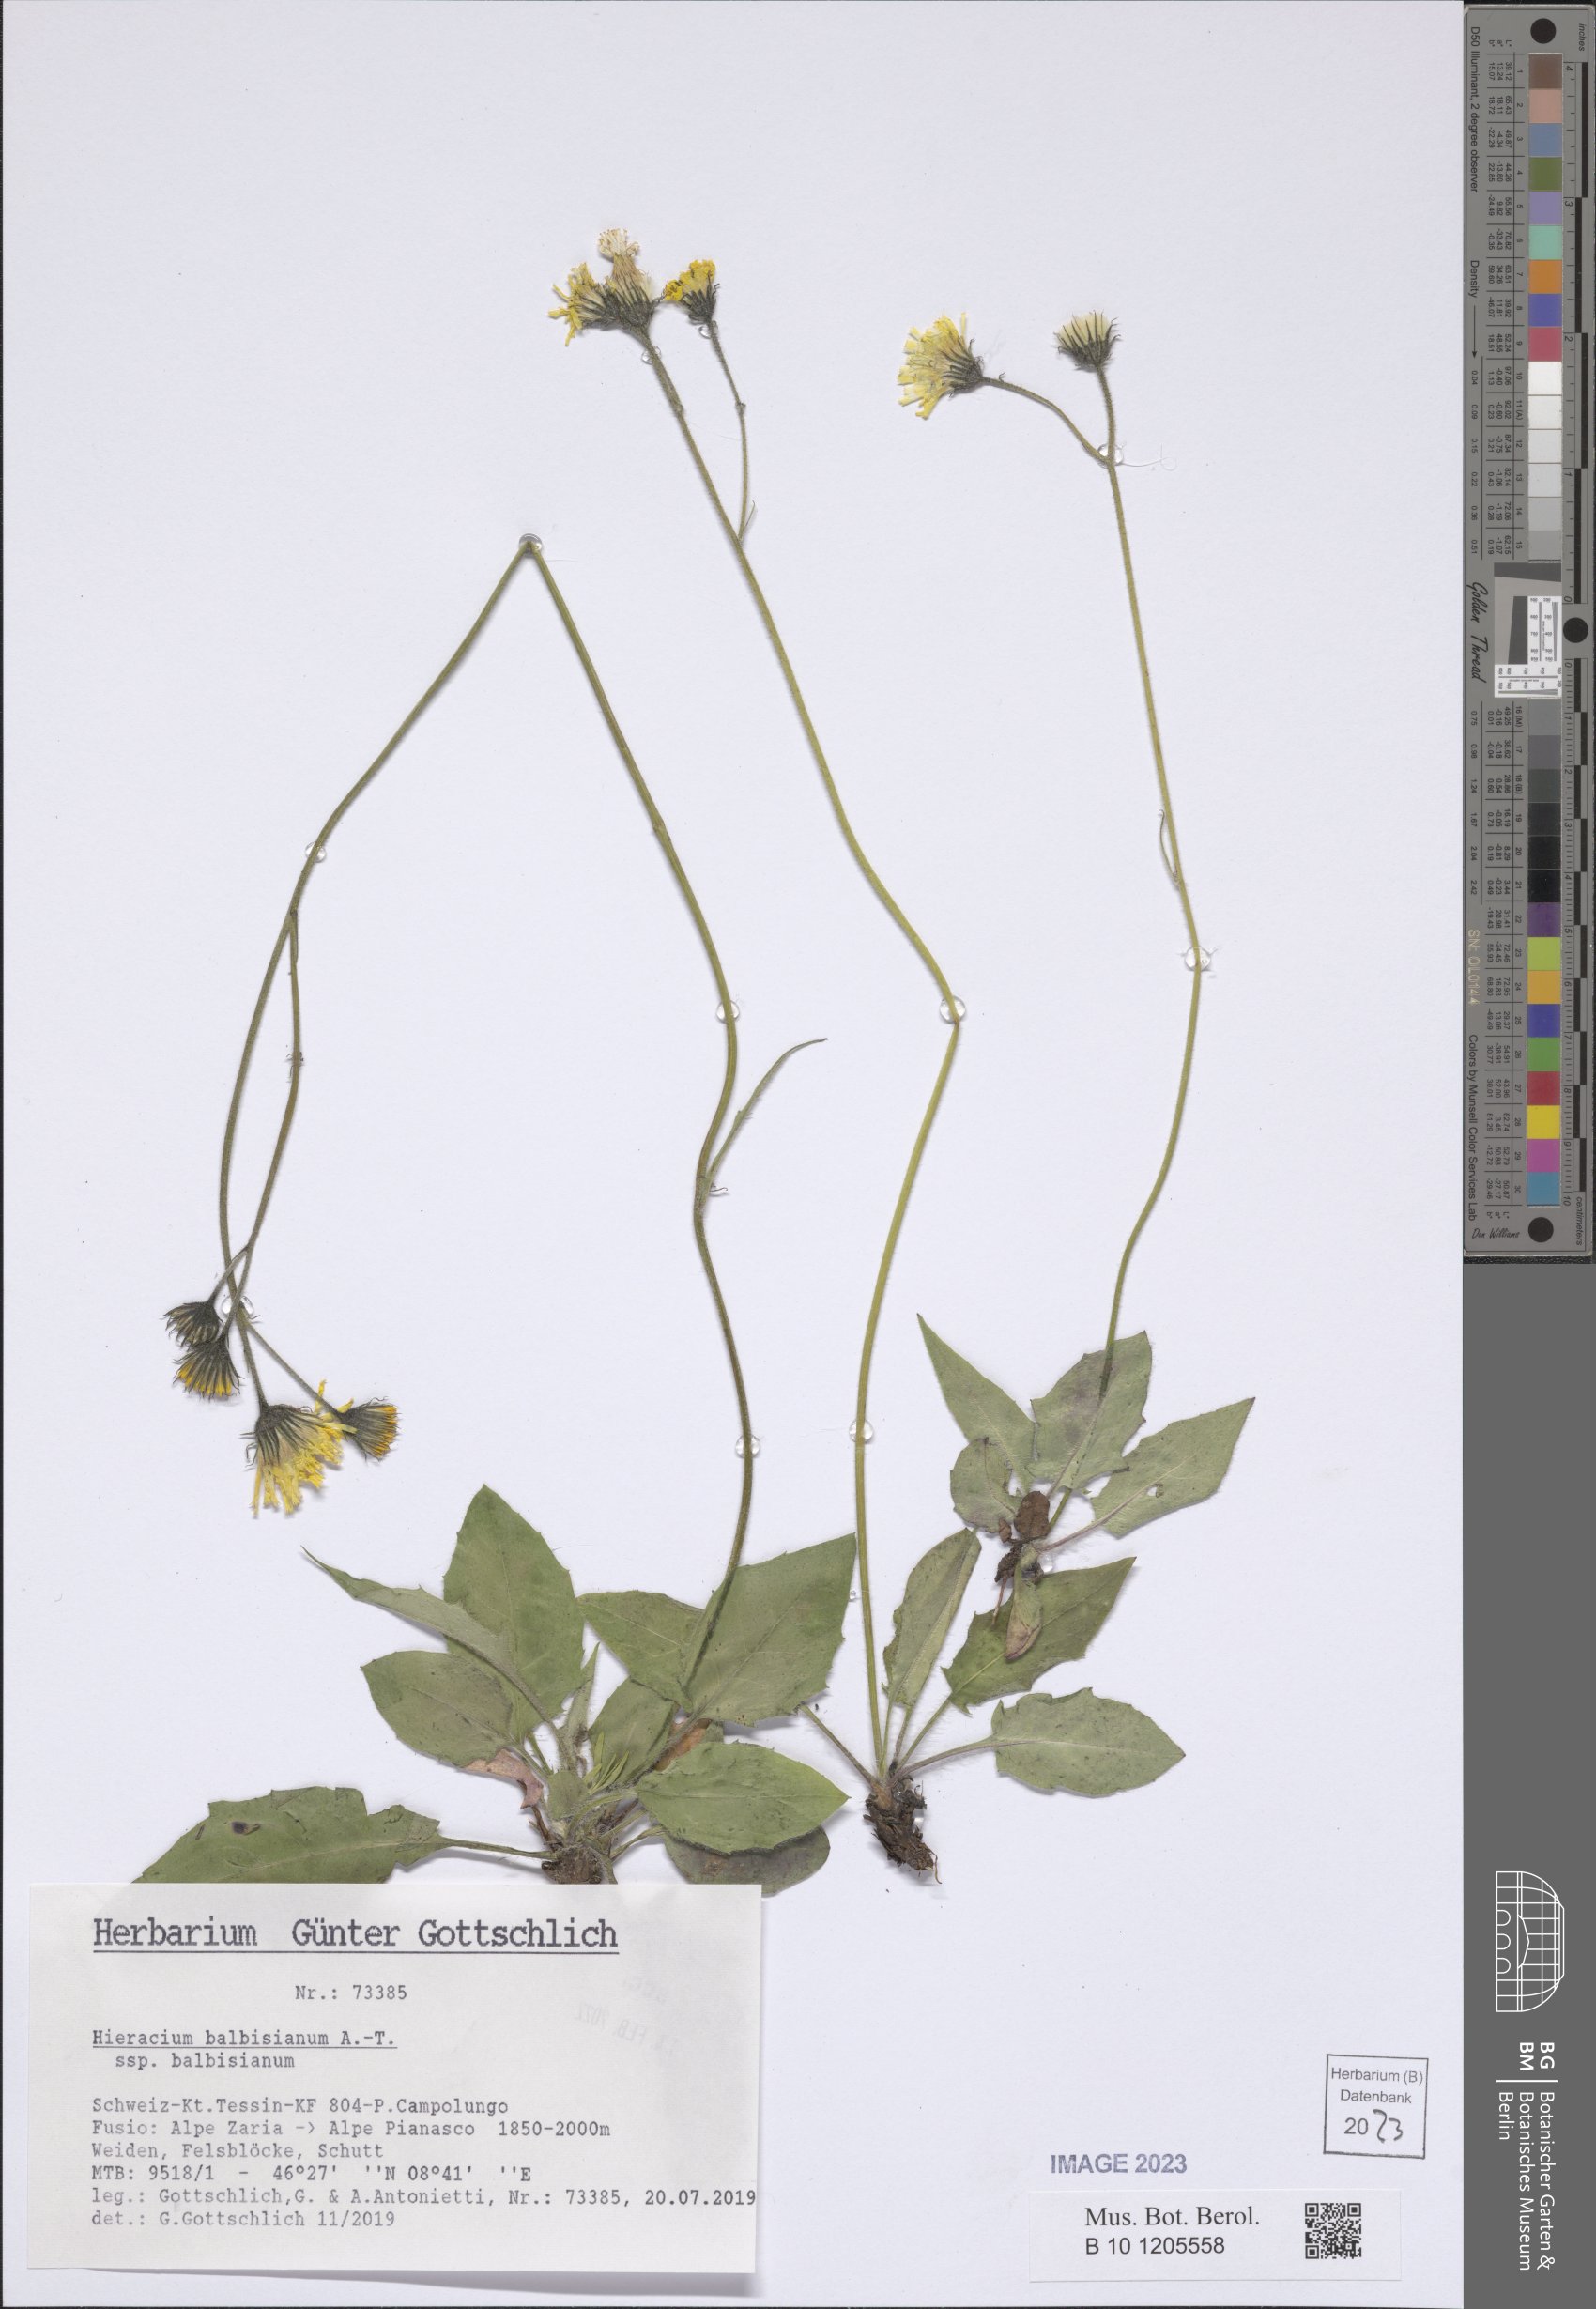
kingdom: Plantae
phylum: Tracheophyta
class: Magnoliopsida
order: Asterales
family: Asteraceae
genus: Hieracium
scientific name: Hieracium balbisianum
